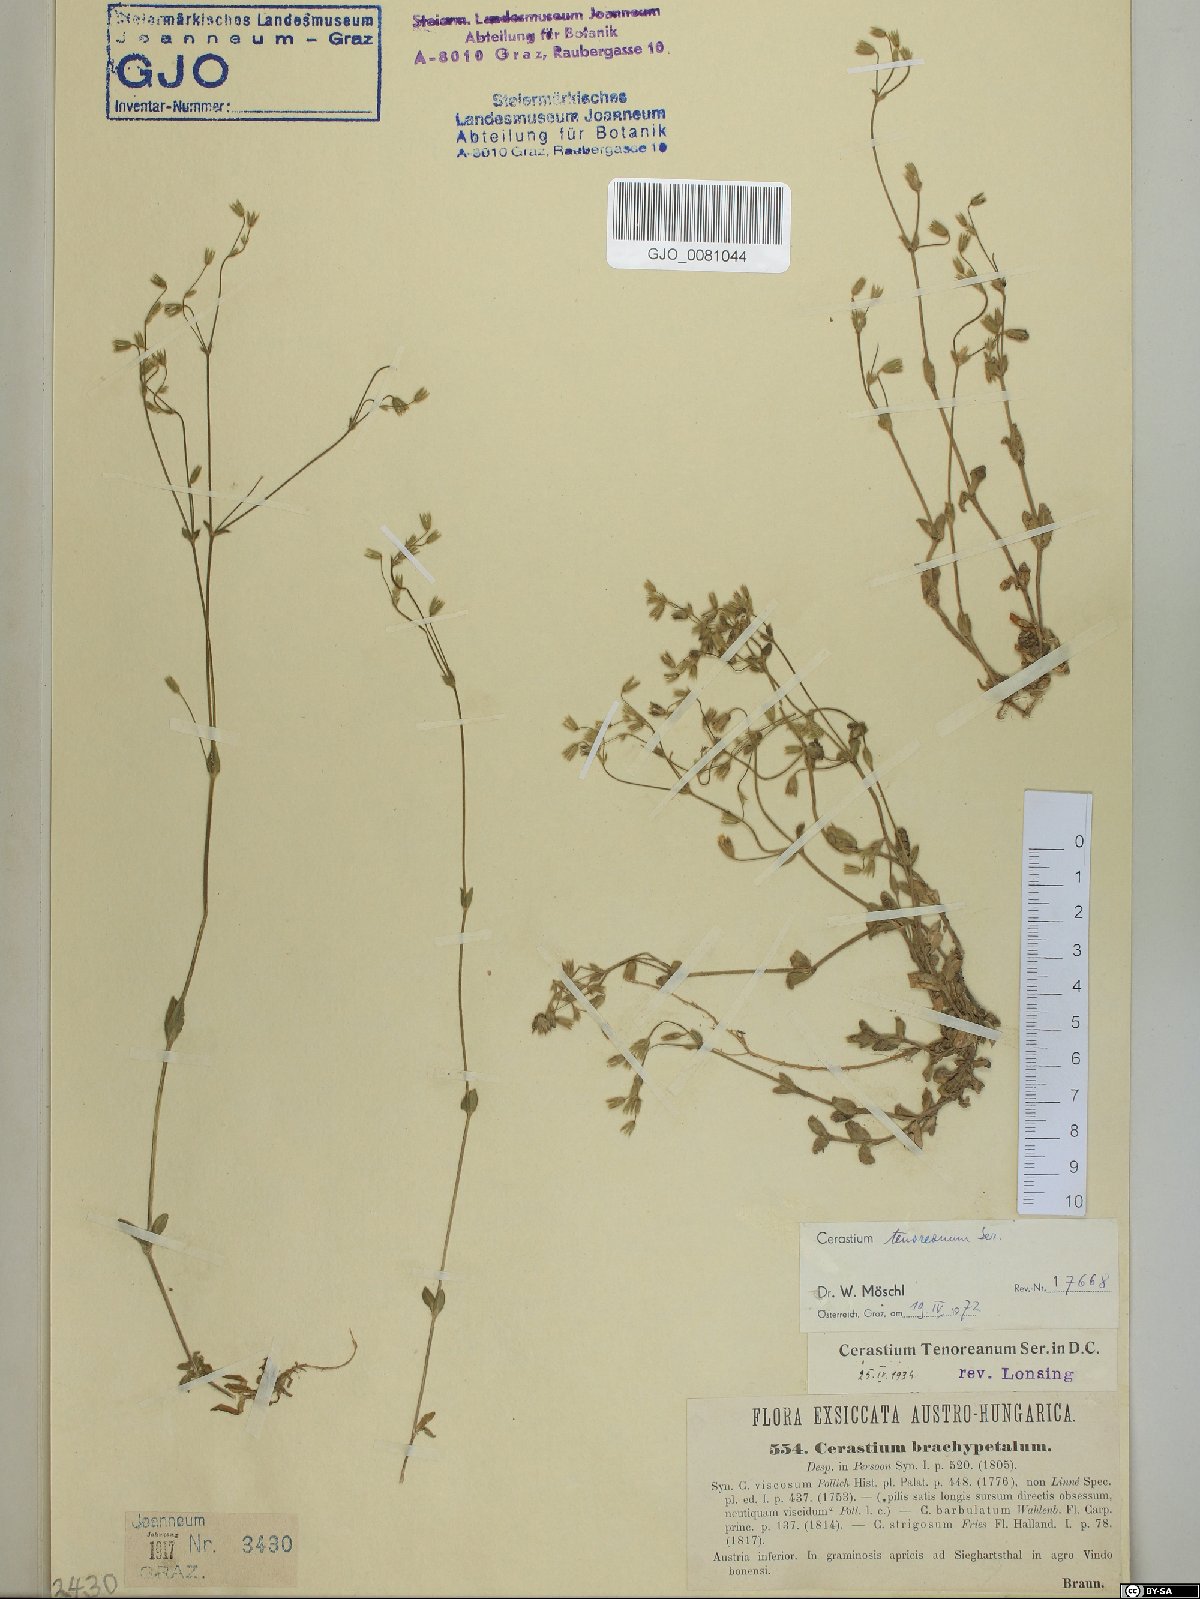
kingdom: Plantae
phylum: Tracheophyta
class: Magnoliopsida
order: Caryophyllales
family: Caryophyllaceae
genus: Cerastium
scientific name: Cerastium tenoreanum
